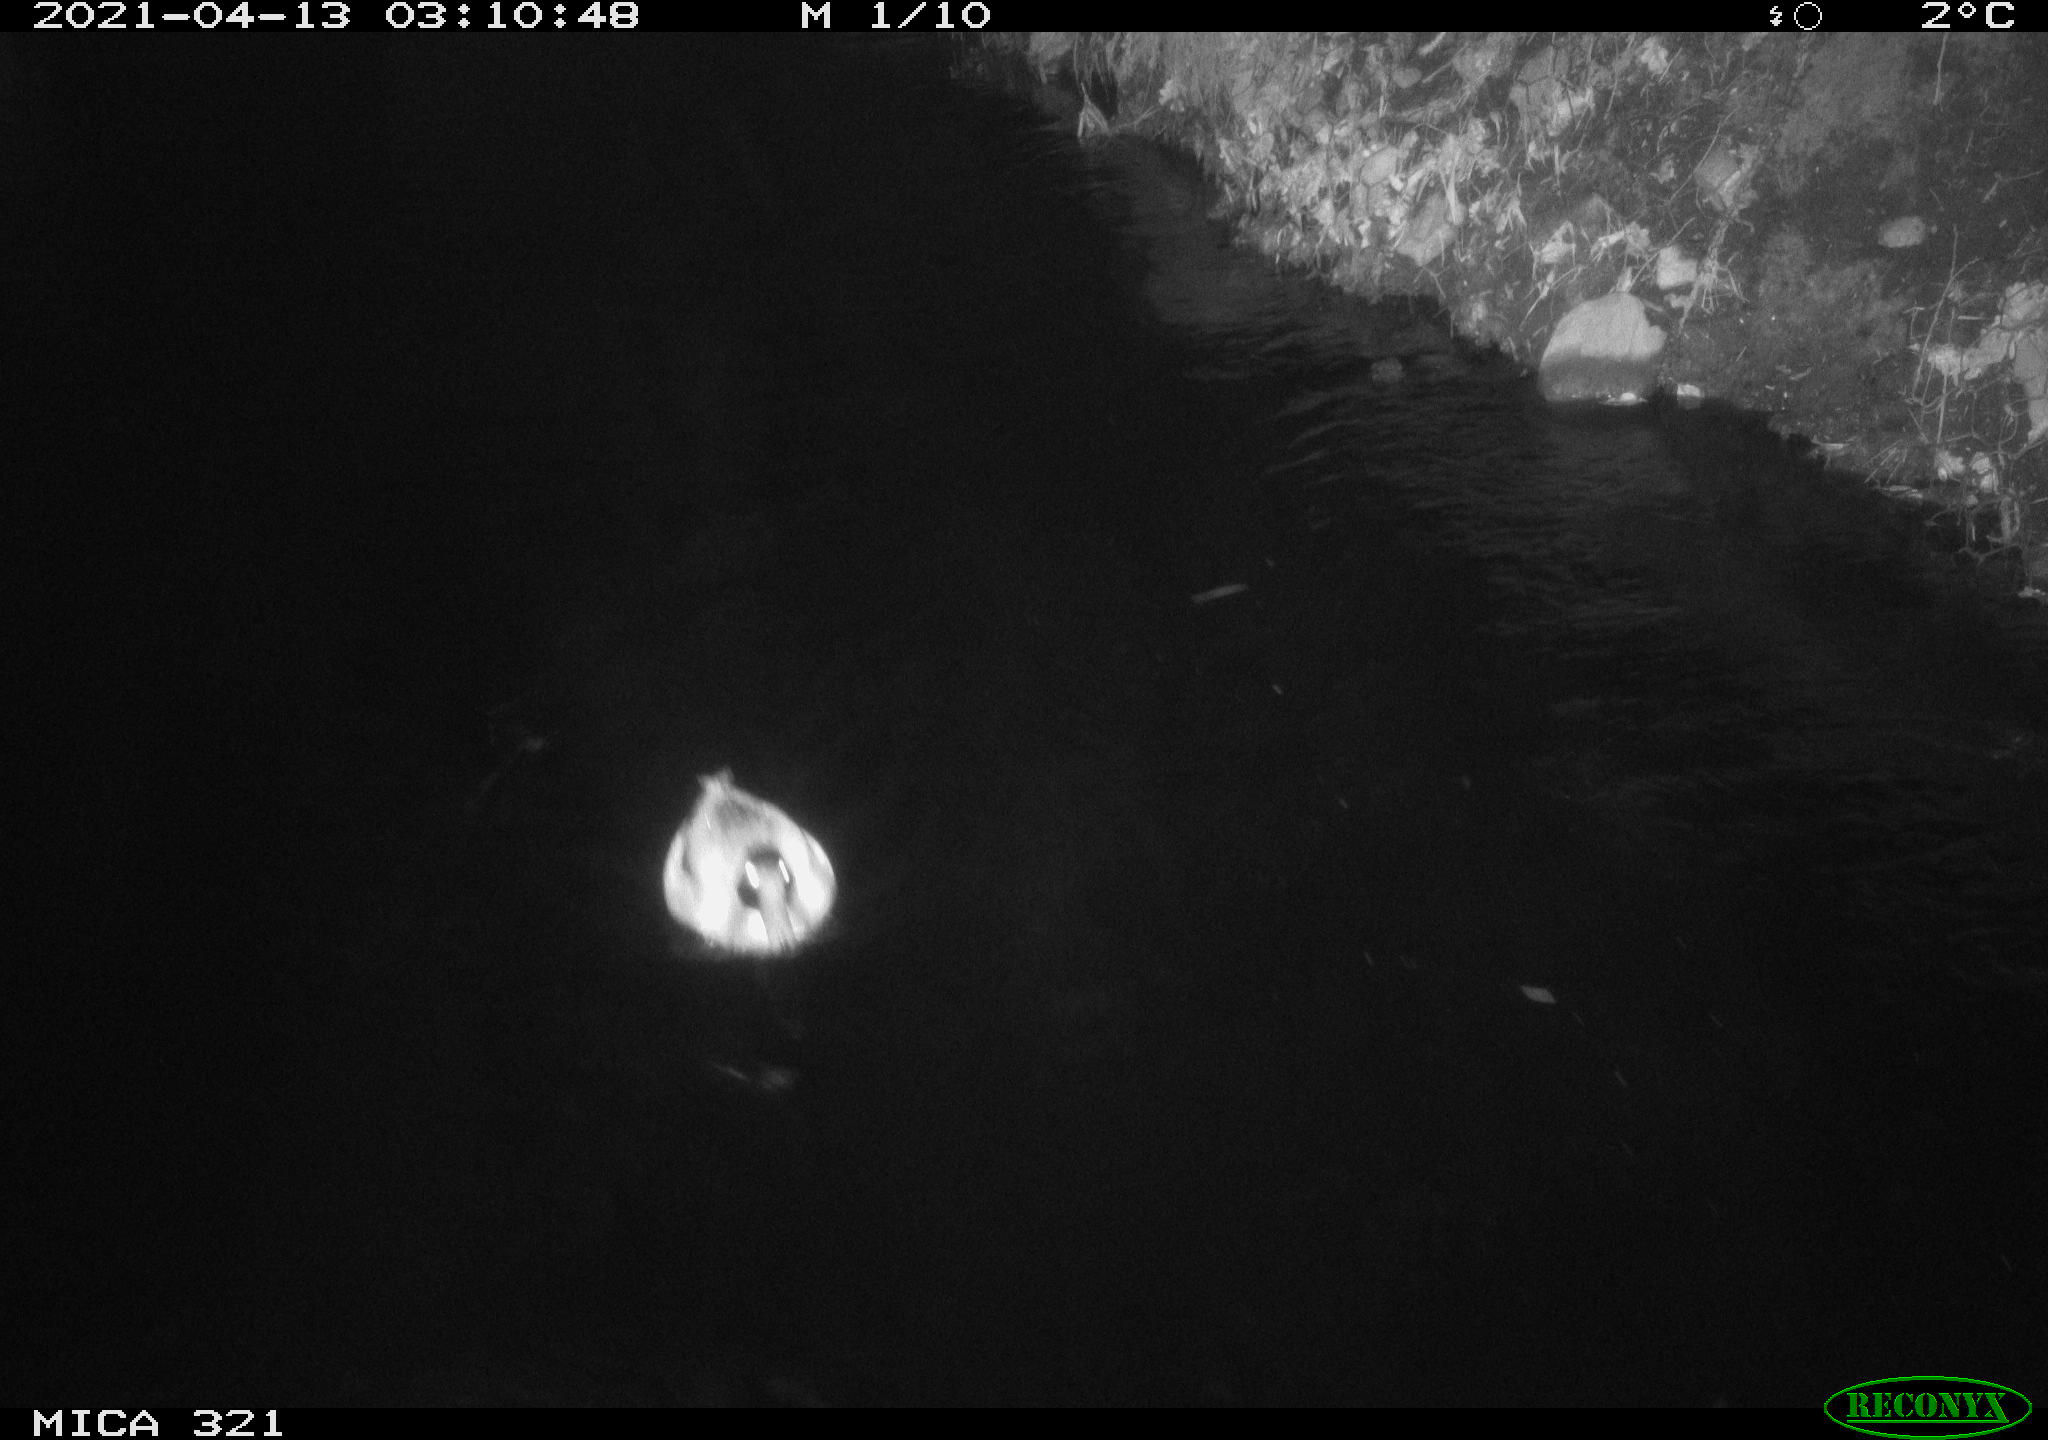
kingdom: Animalia
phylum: Chordata
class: Aves
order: Anseriformes
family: Anatidae
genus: Anas
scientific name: Anas
